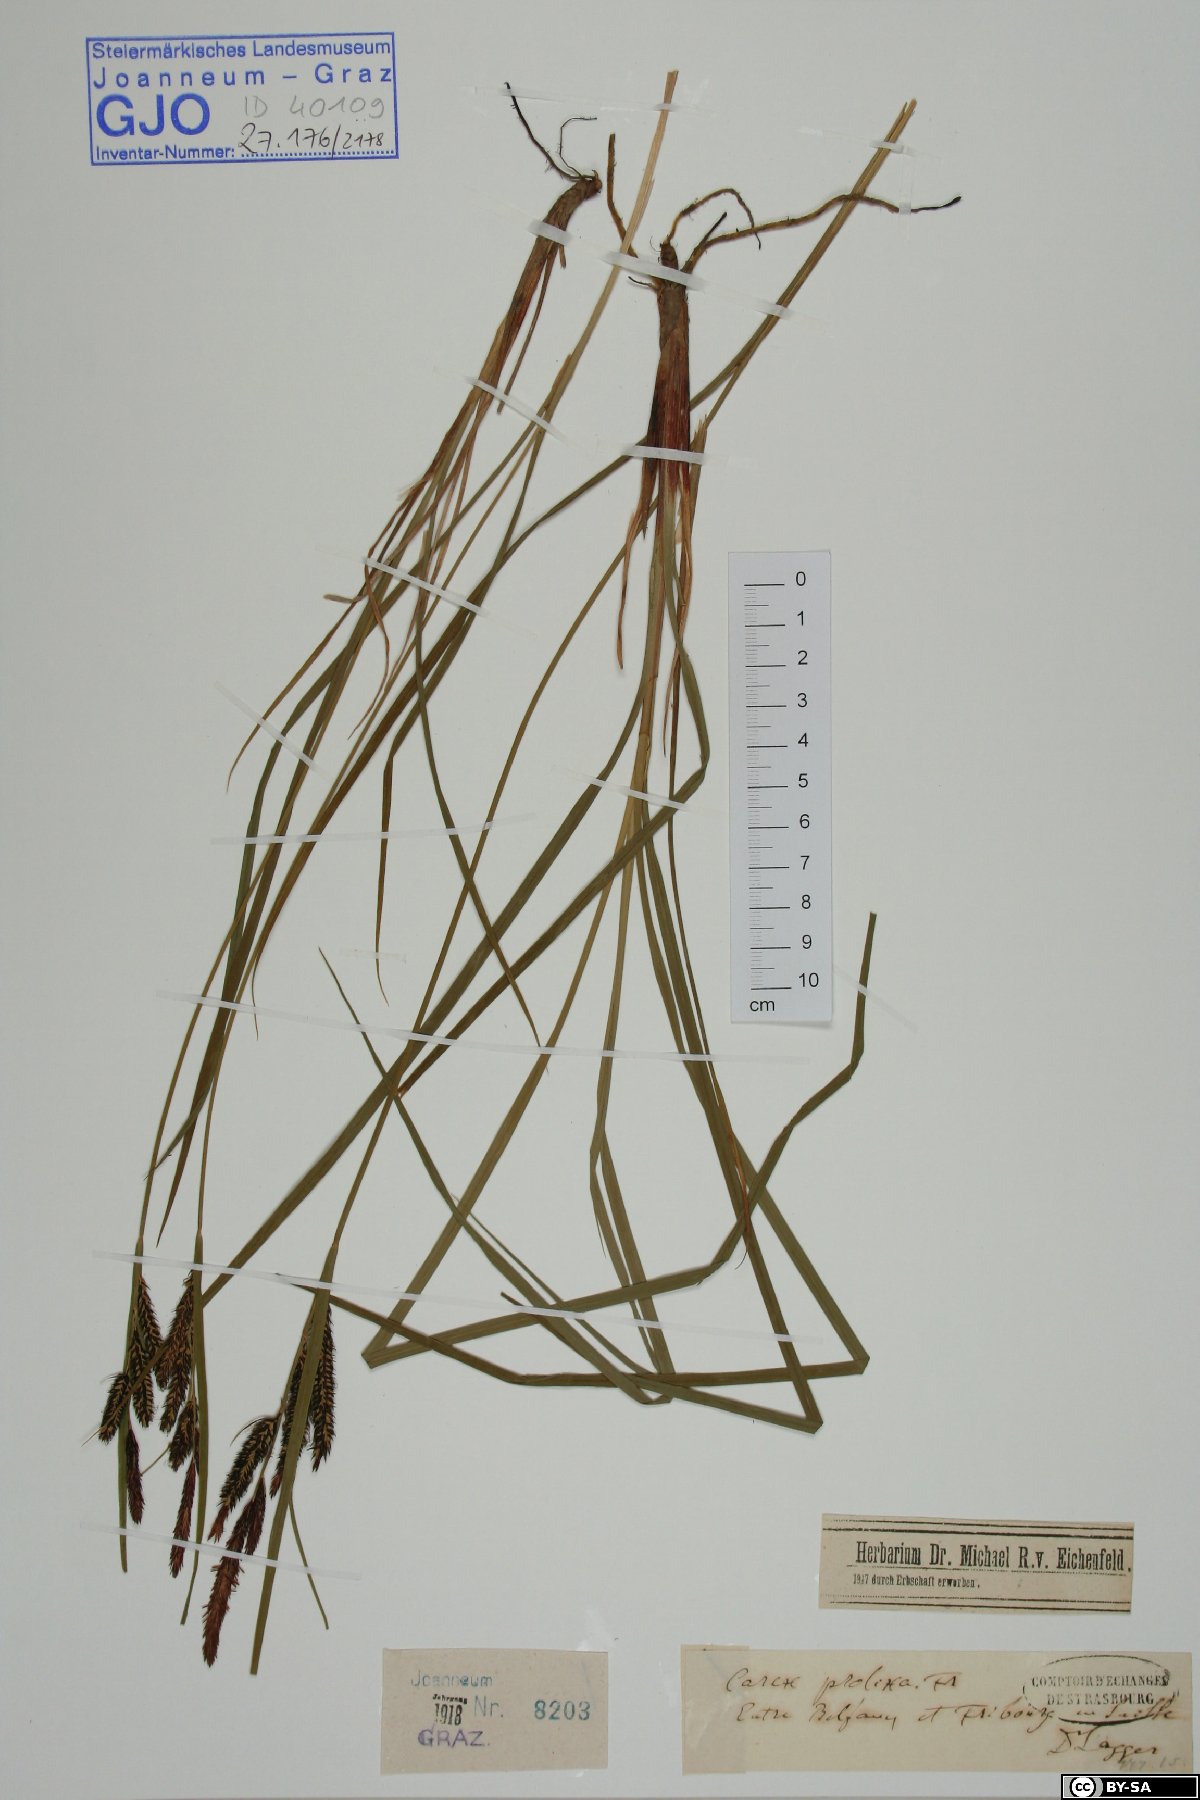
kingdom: Plantae
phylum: Tracheophyta
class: Liliopsida
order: Poales
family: Cyperaceae
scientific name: Cyperaceae
